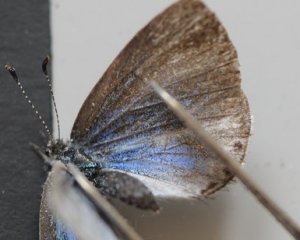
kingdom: Animalia
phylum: Arthropoda
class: Insecta
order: Lepidoptera
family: Lycaenidae
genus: Celastrina
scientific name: Celastrina
